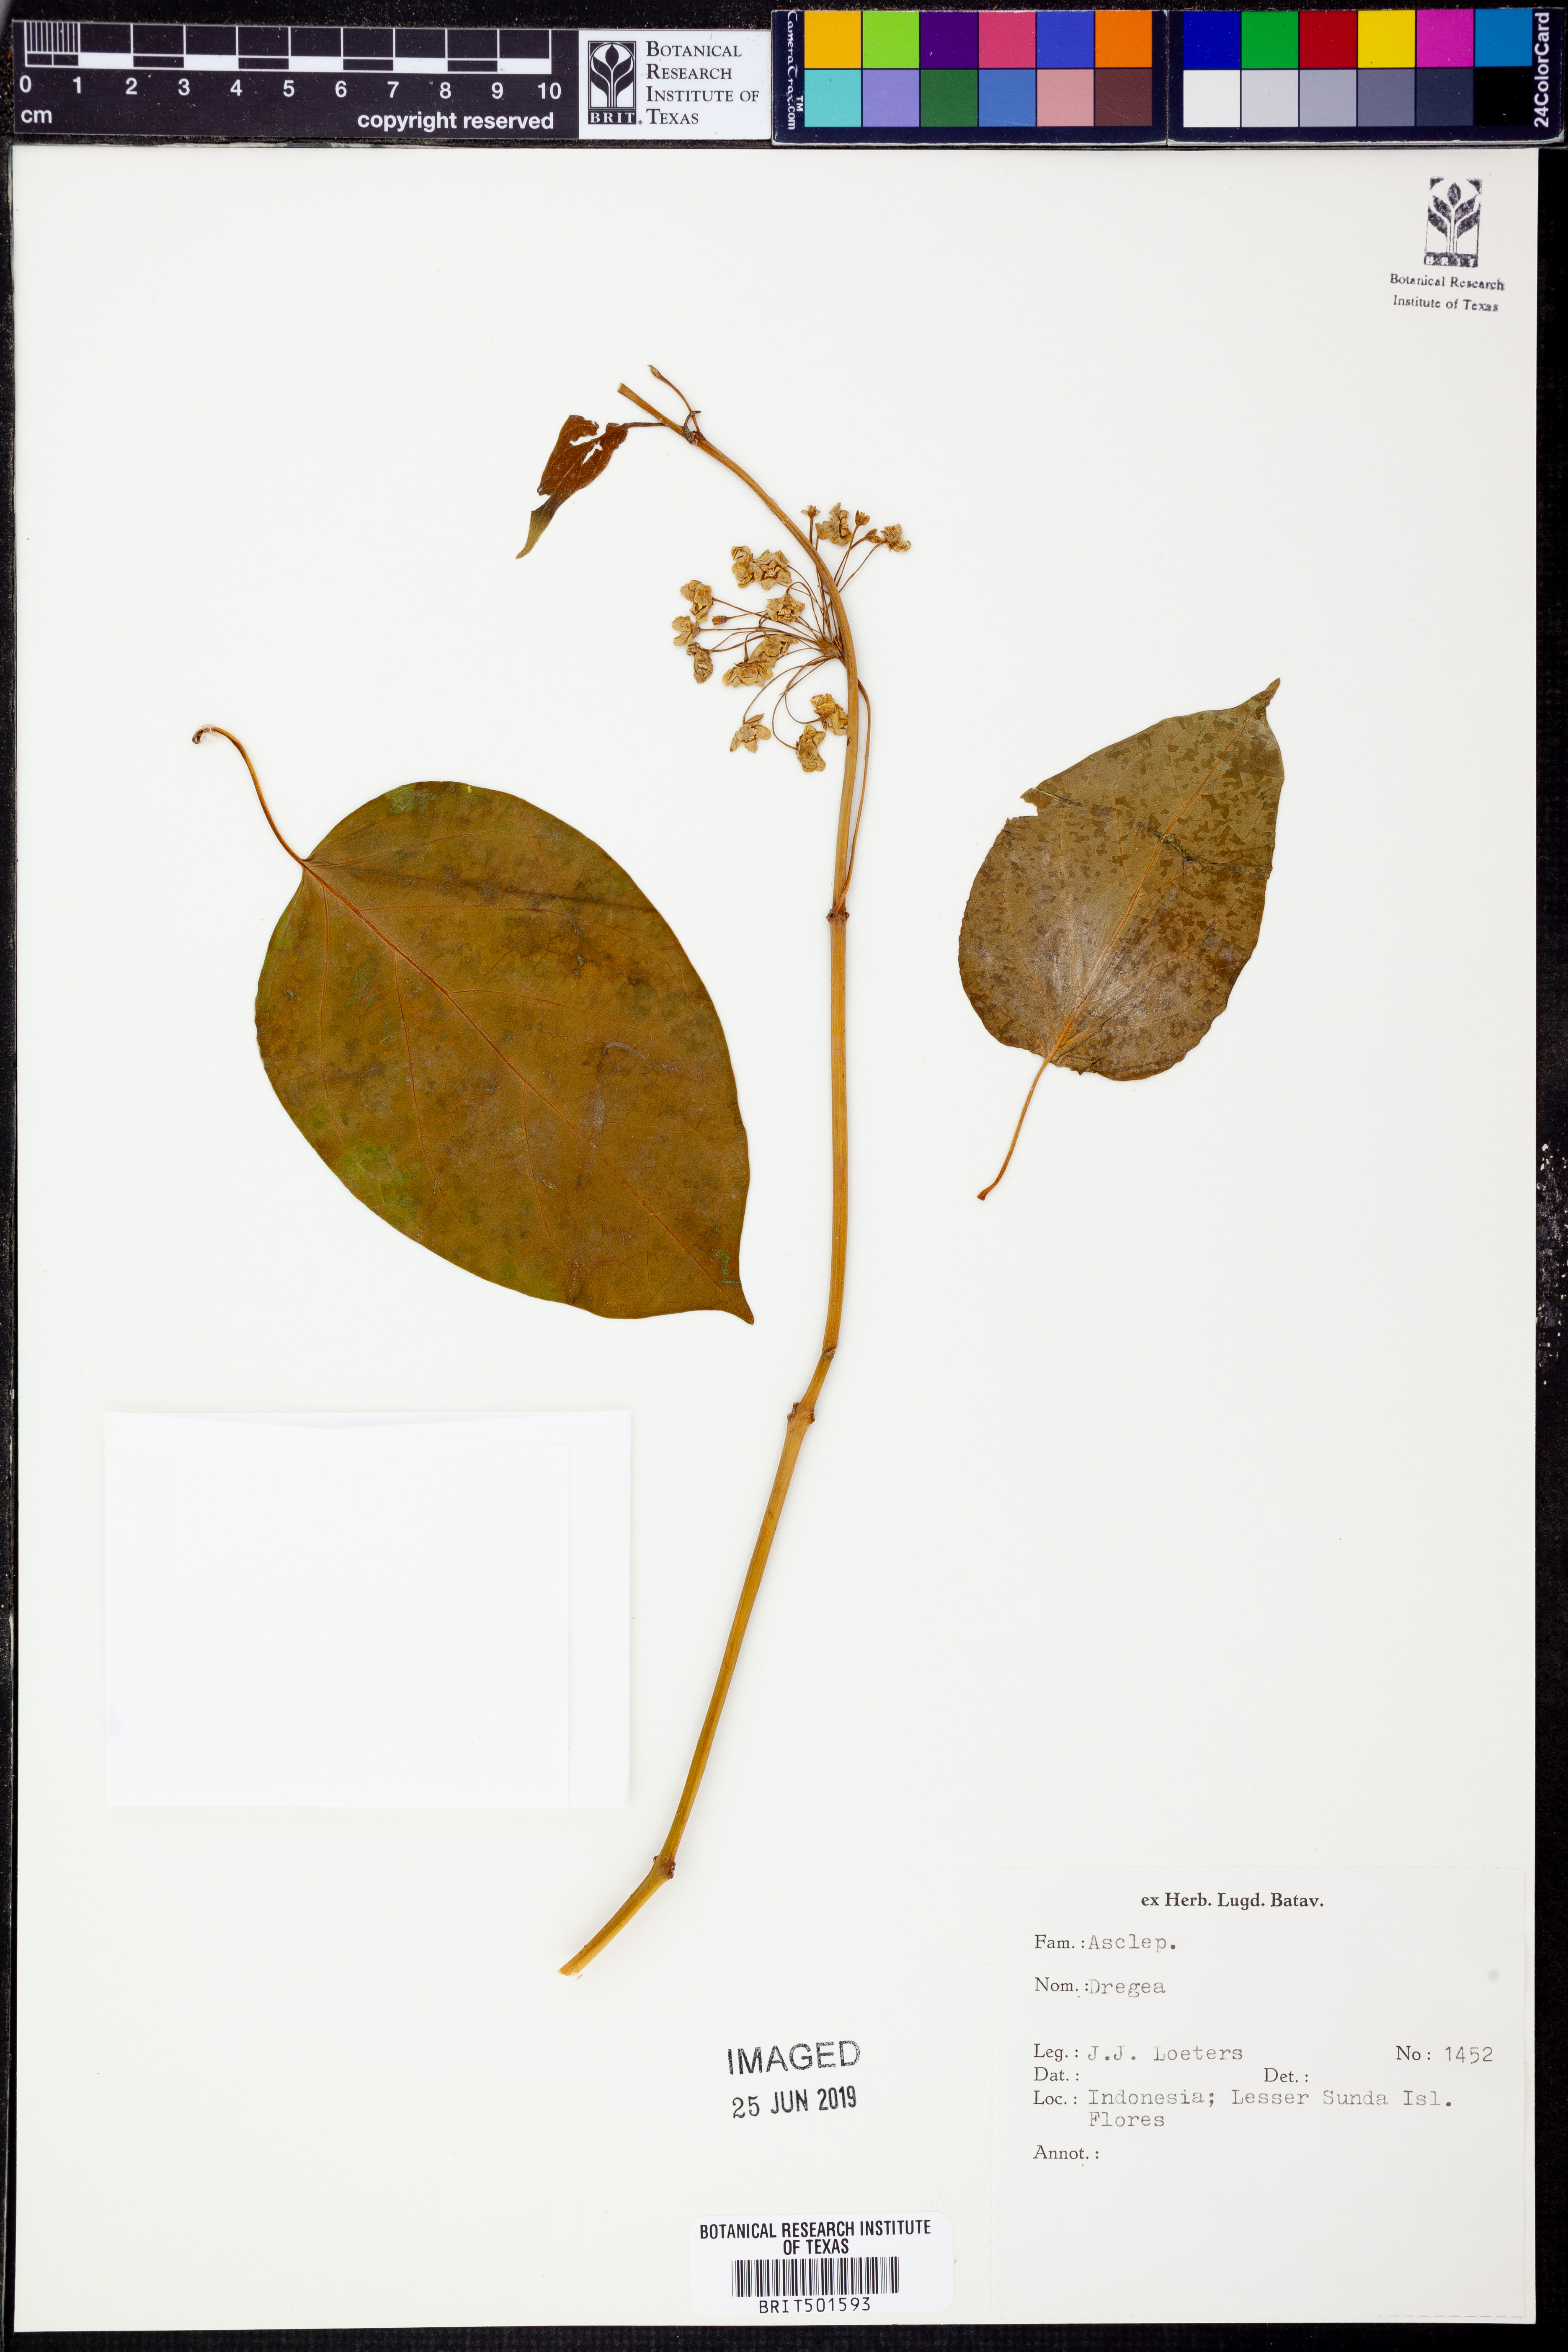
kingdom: Plantae
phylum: Tracheophyta
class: Magnoliopsida
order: Gentianales
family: Apocynaceae
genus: Dregea
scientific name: Dregea
